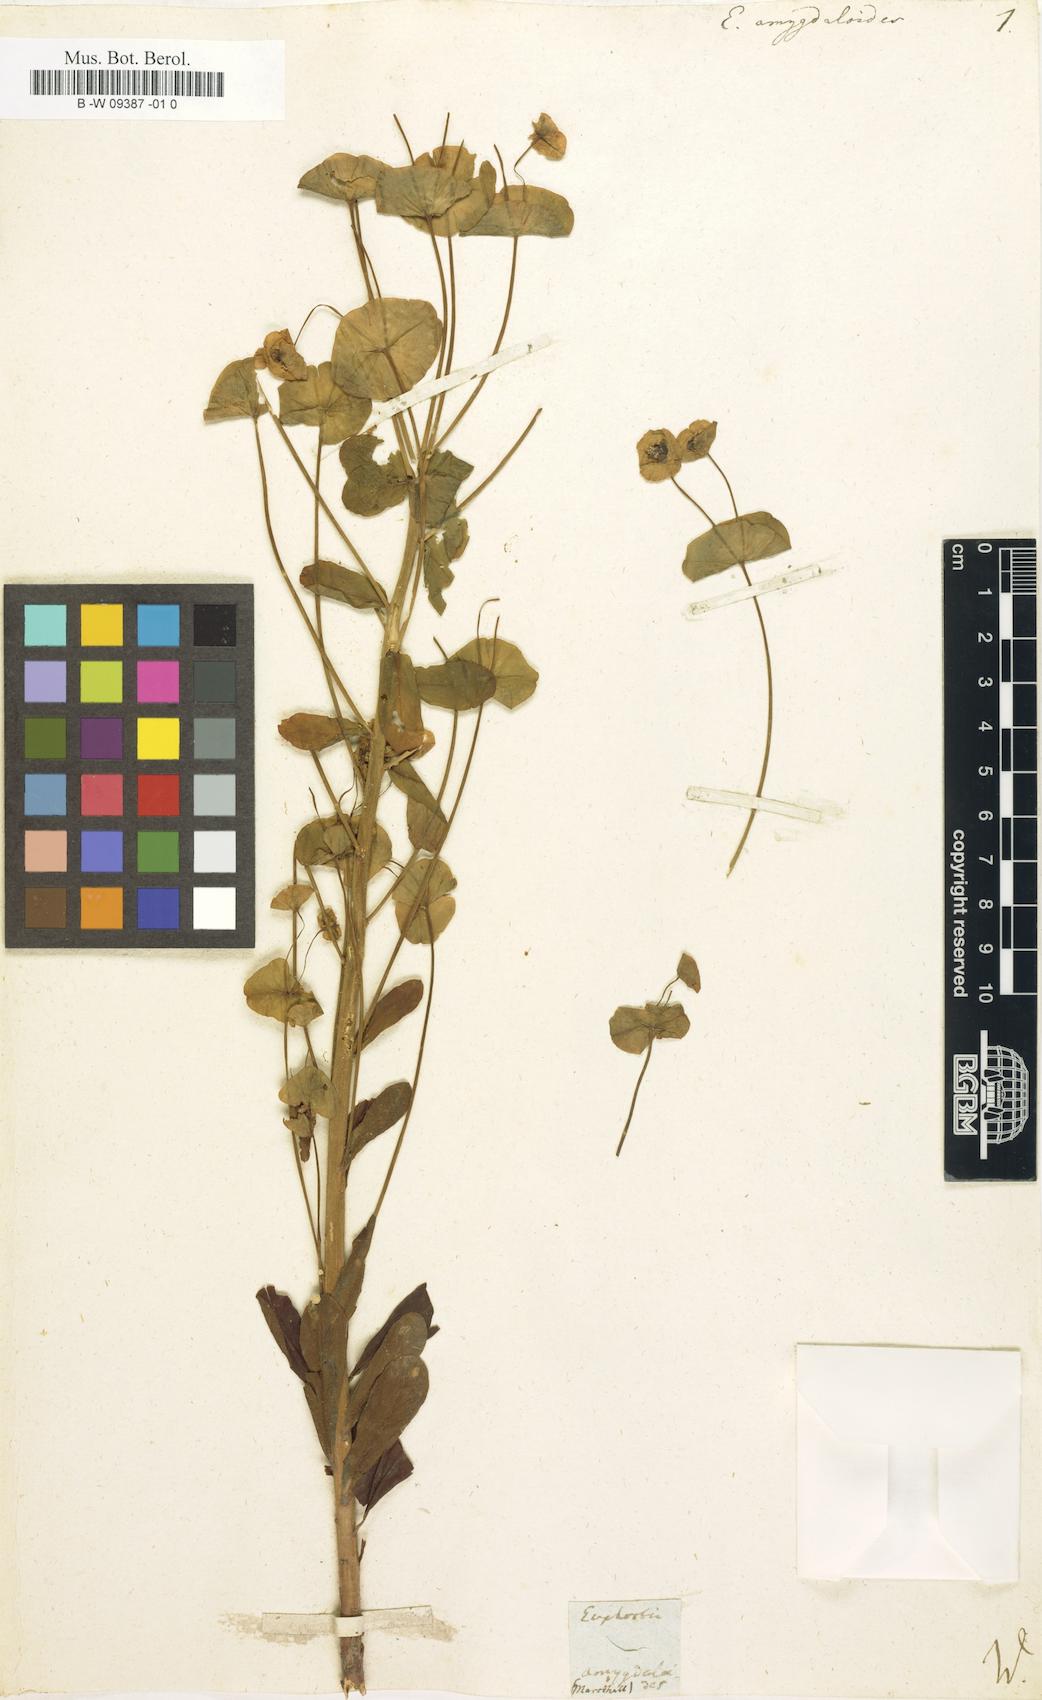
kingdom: Plantae
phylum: Tracheophyta
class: Magnoliopsida
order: Malpighiales
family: Euphorbiaceae
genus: Euphorbia
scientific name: Euphorbia amygdaloides
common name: Wood spurge
